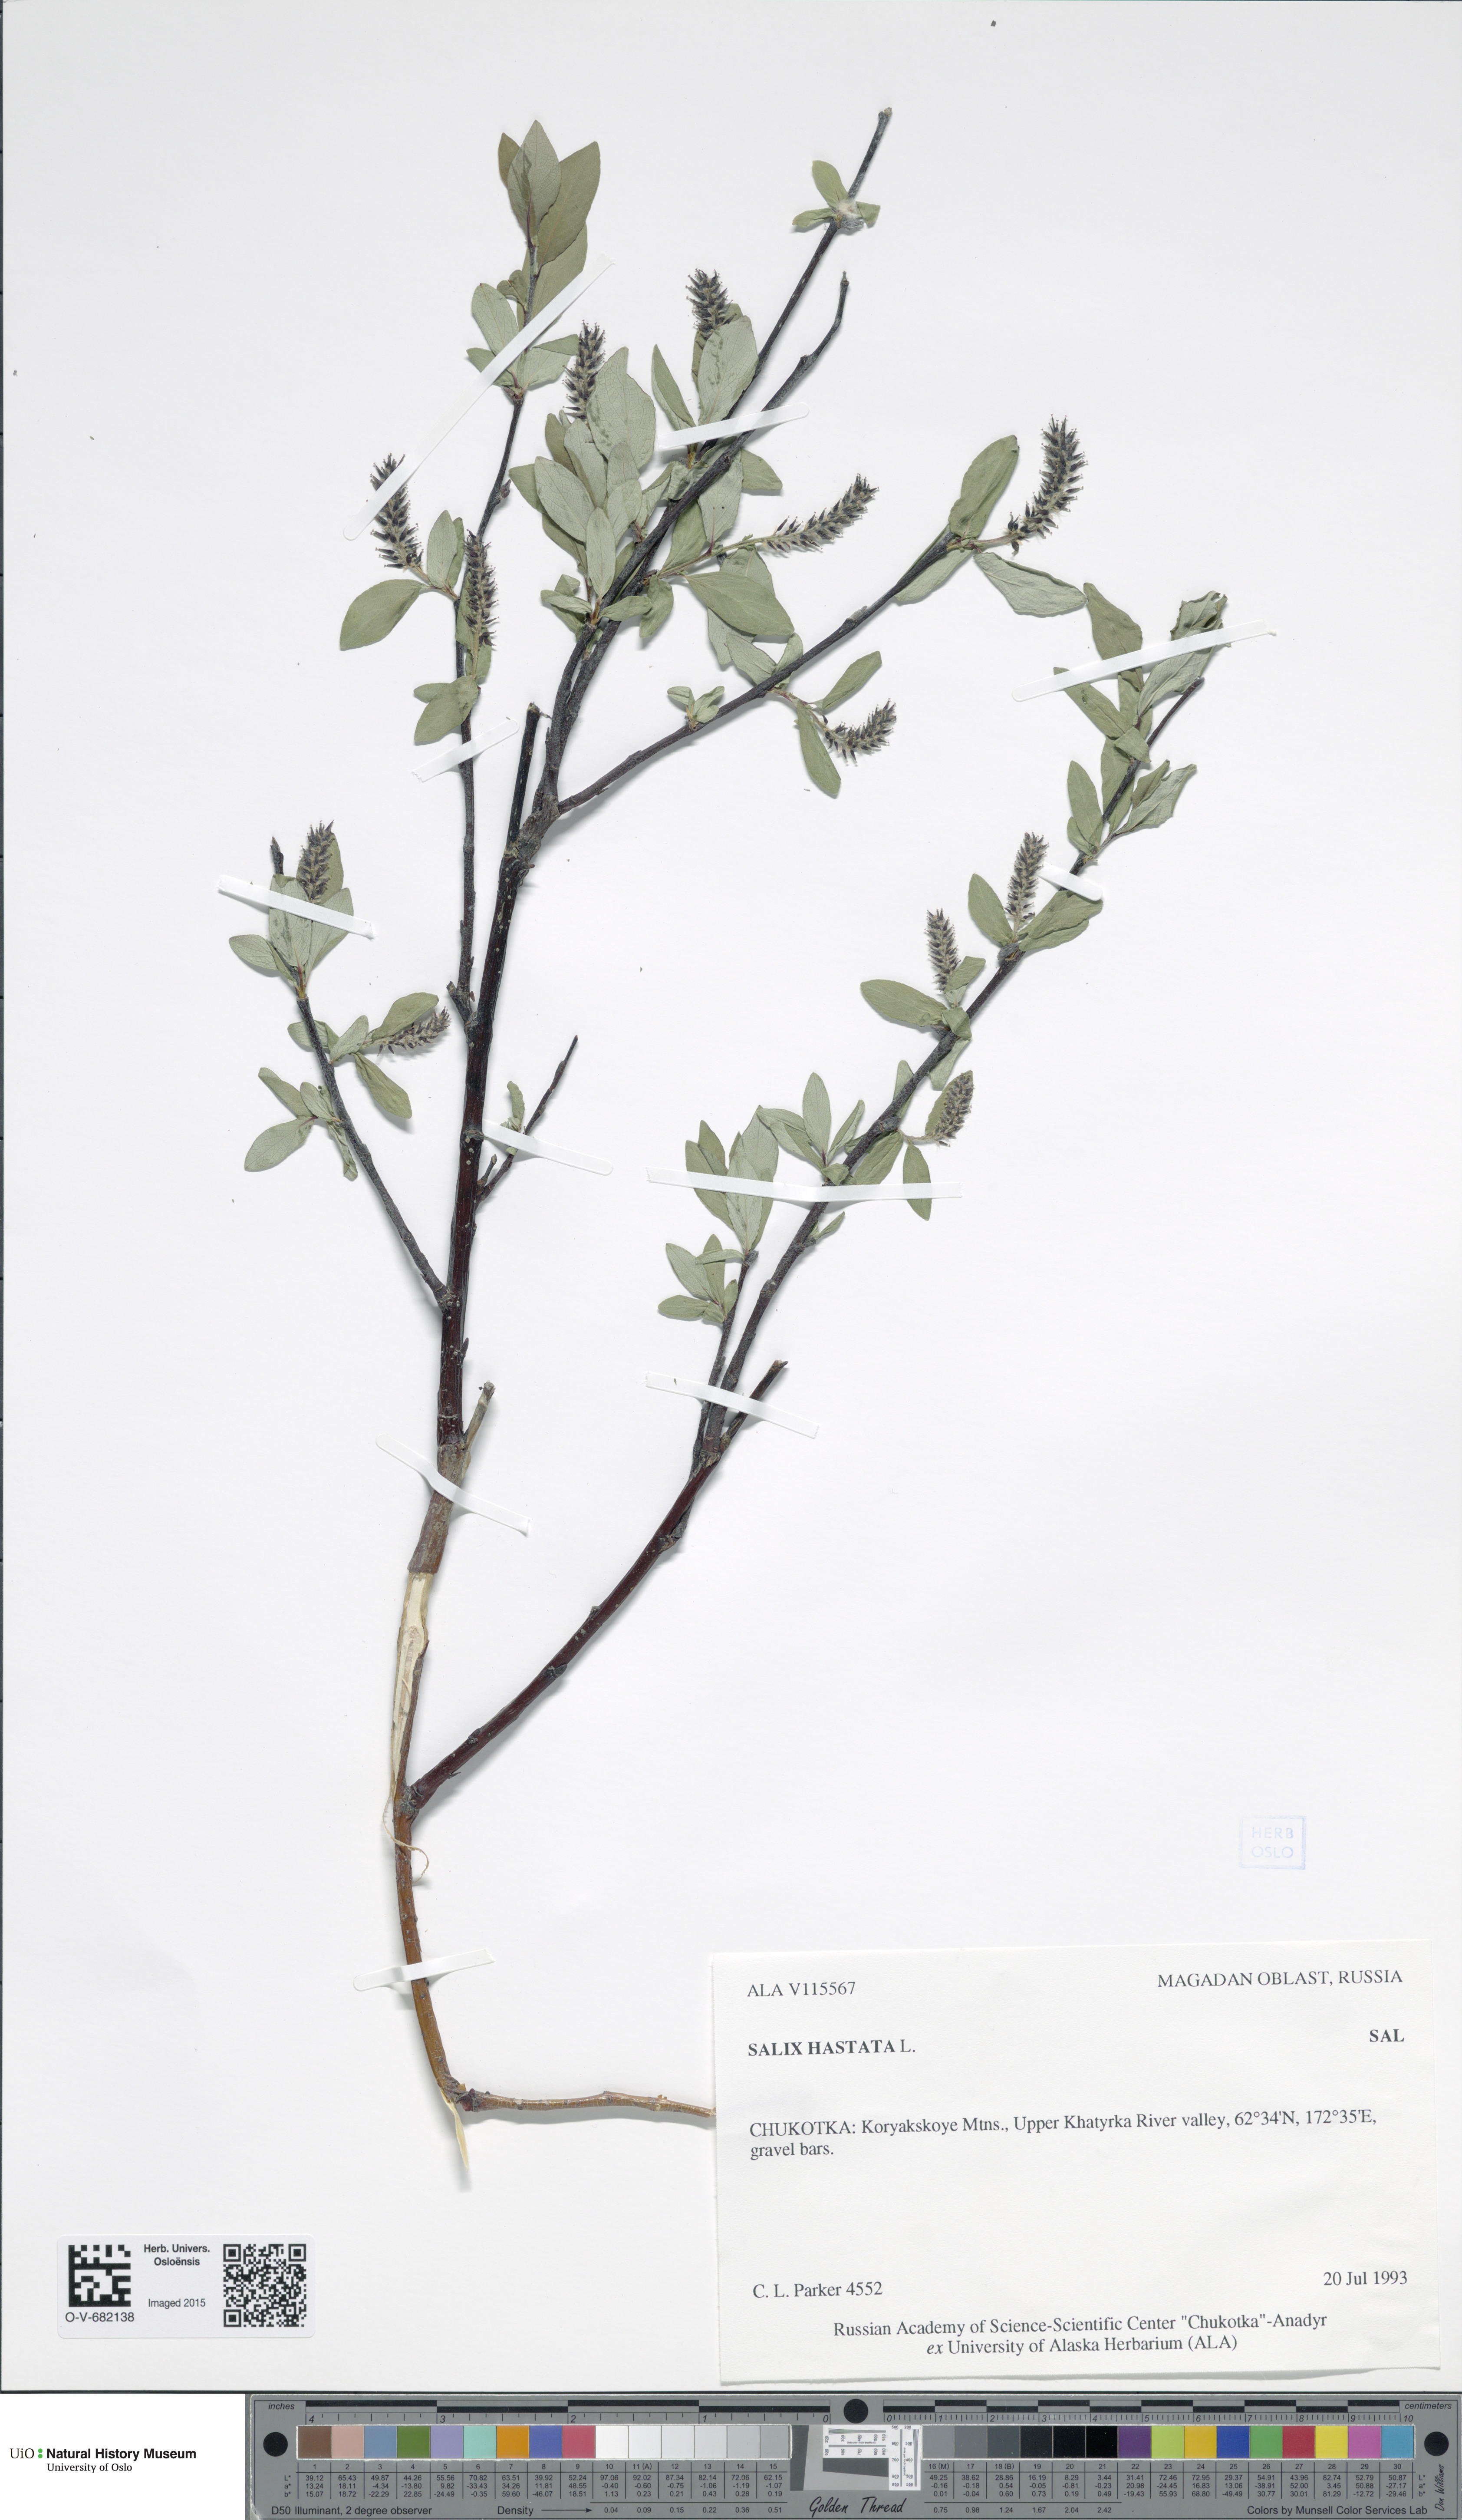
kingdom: Plantae
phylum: Tracheophyta
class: Magnoliopsida
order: Malpighiales
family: Salicaceae
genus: Salix
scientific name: Salix hastata
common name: Halberd willow
